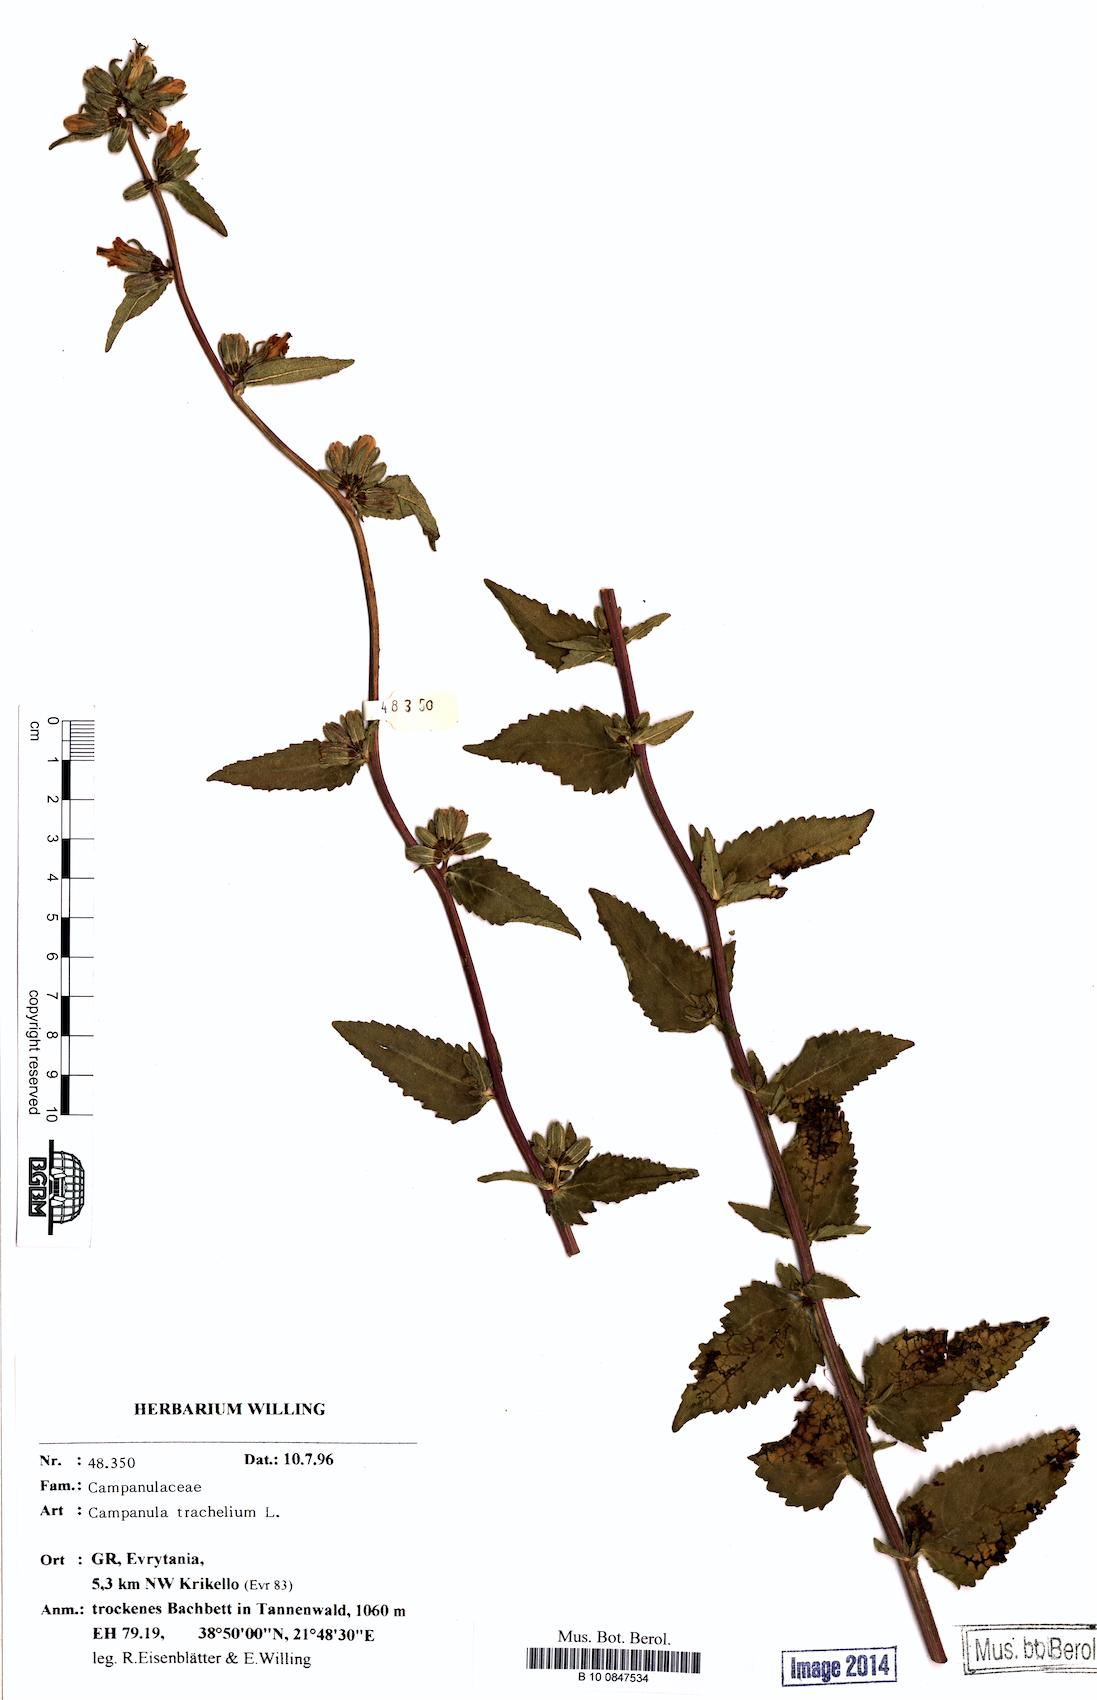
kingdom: Plantae
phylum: Tracheophyta
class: Magnoliopsida
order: Asterales
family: Campanulaceae
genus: Campanula
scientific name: Campanula trachelium
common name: Nettle-leaved bellflower
